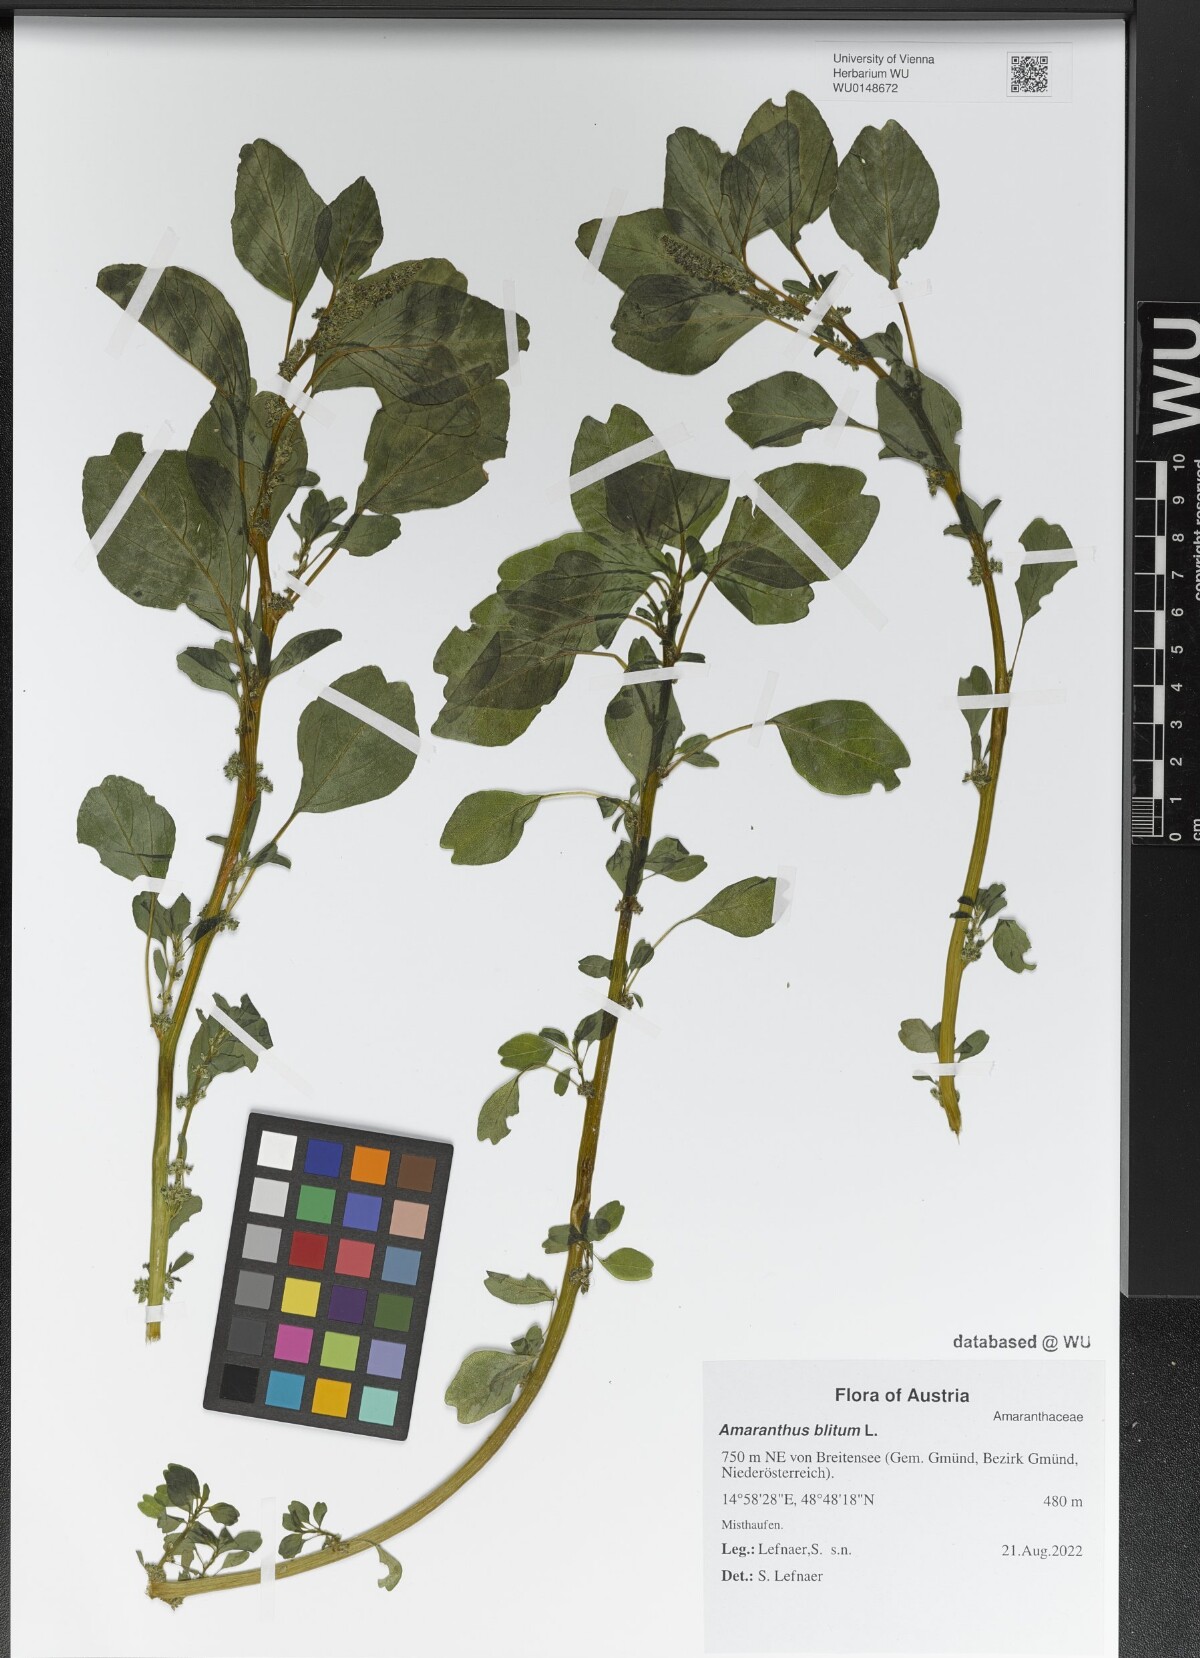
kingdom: Plantae
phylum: Tracheophyta
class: Magnoliopsida
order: Caryophyllales
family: Amaranthaceae
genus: Amaranthus
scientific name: Amaranthus blitum
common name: Purple amaranth
